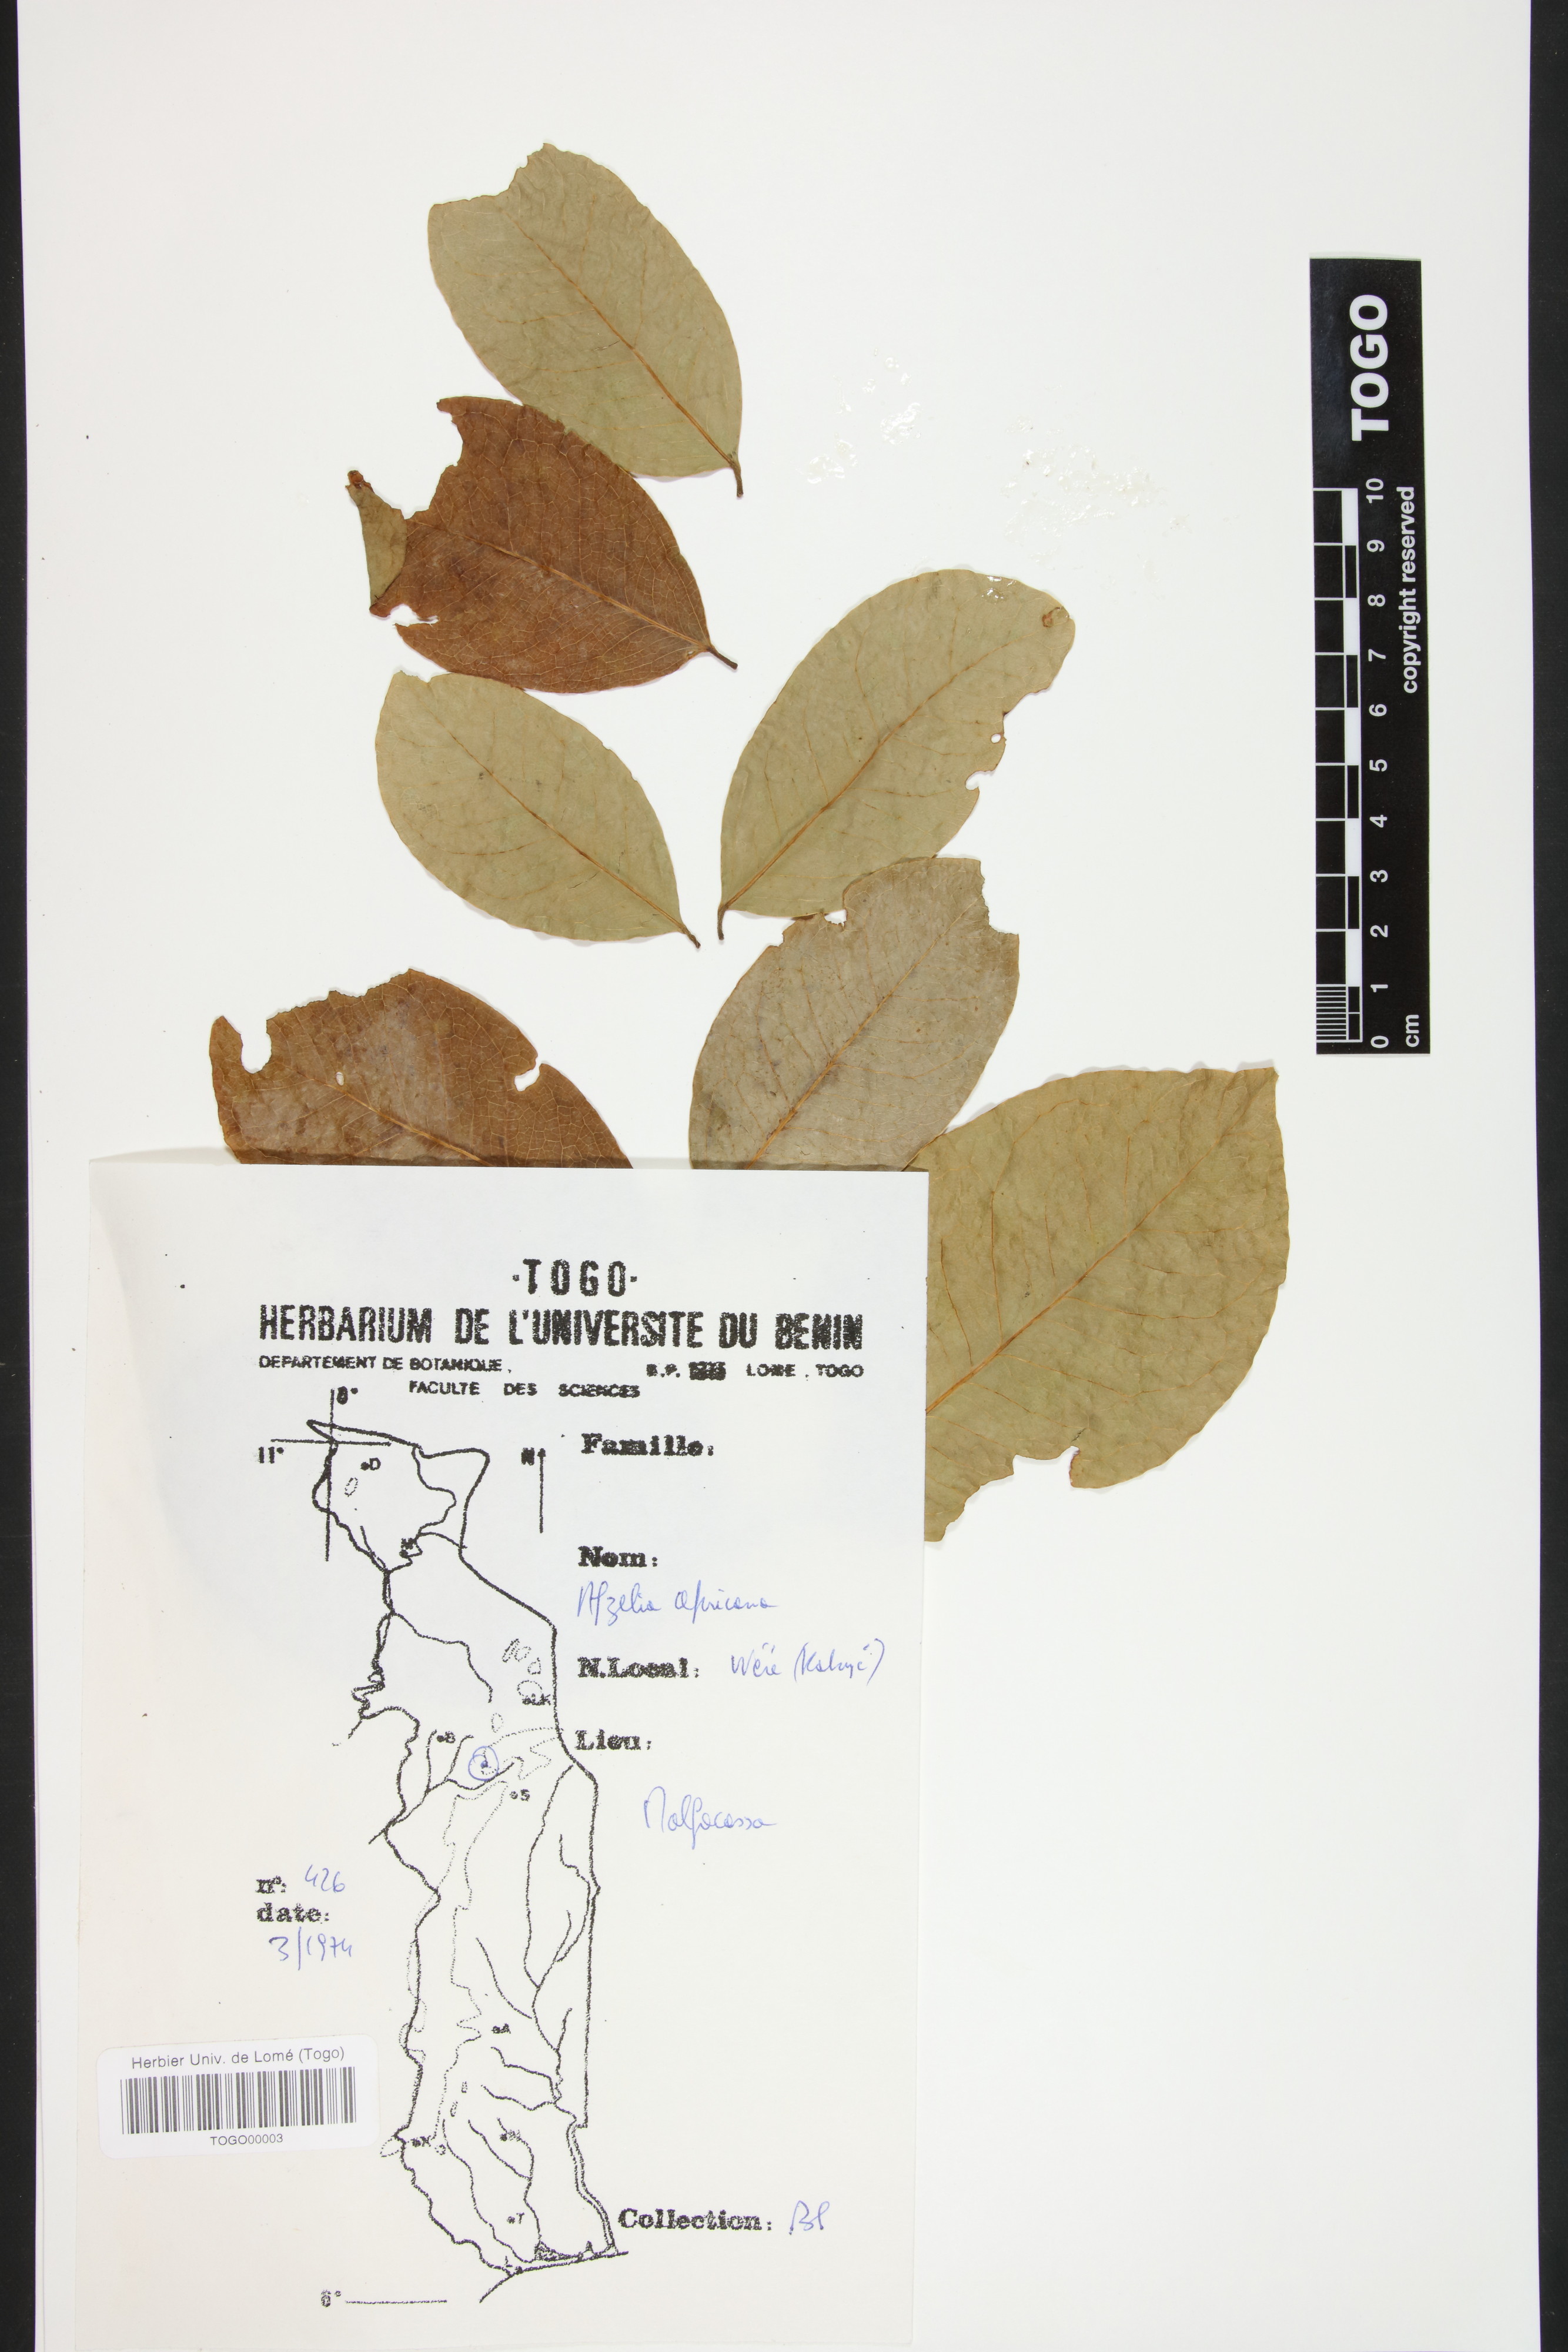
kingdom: Plantae
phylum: Tracheophyta
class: Magnoliopsida
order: Fabales
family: Fabaceae
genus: Afzelia
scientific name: Afzelia africana
